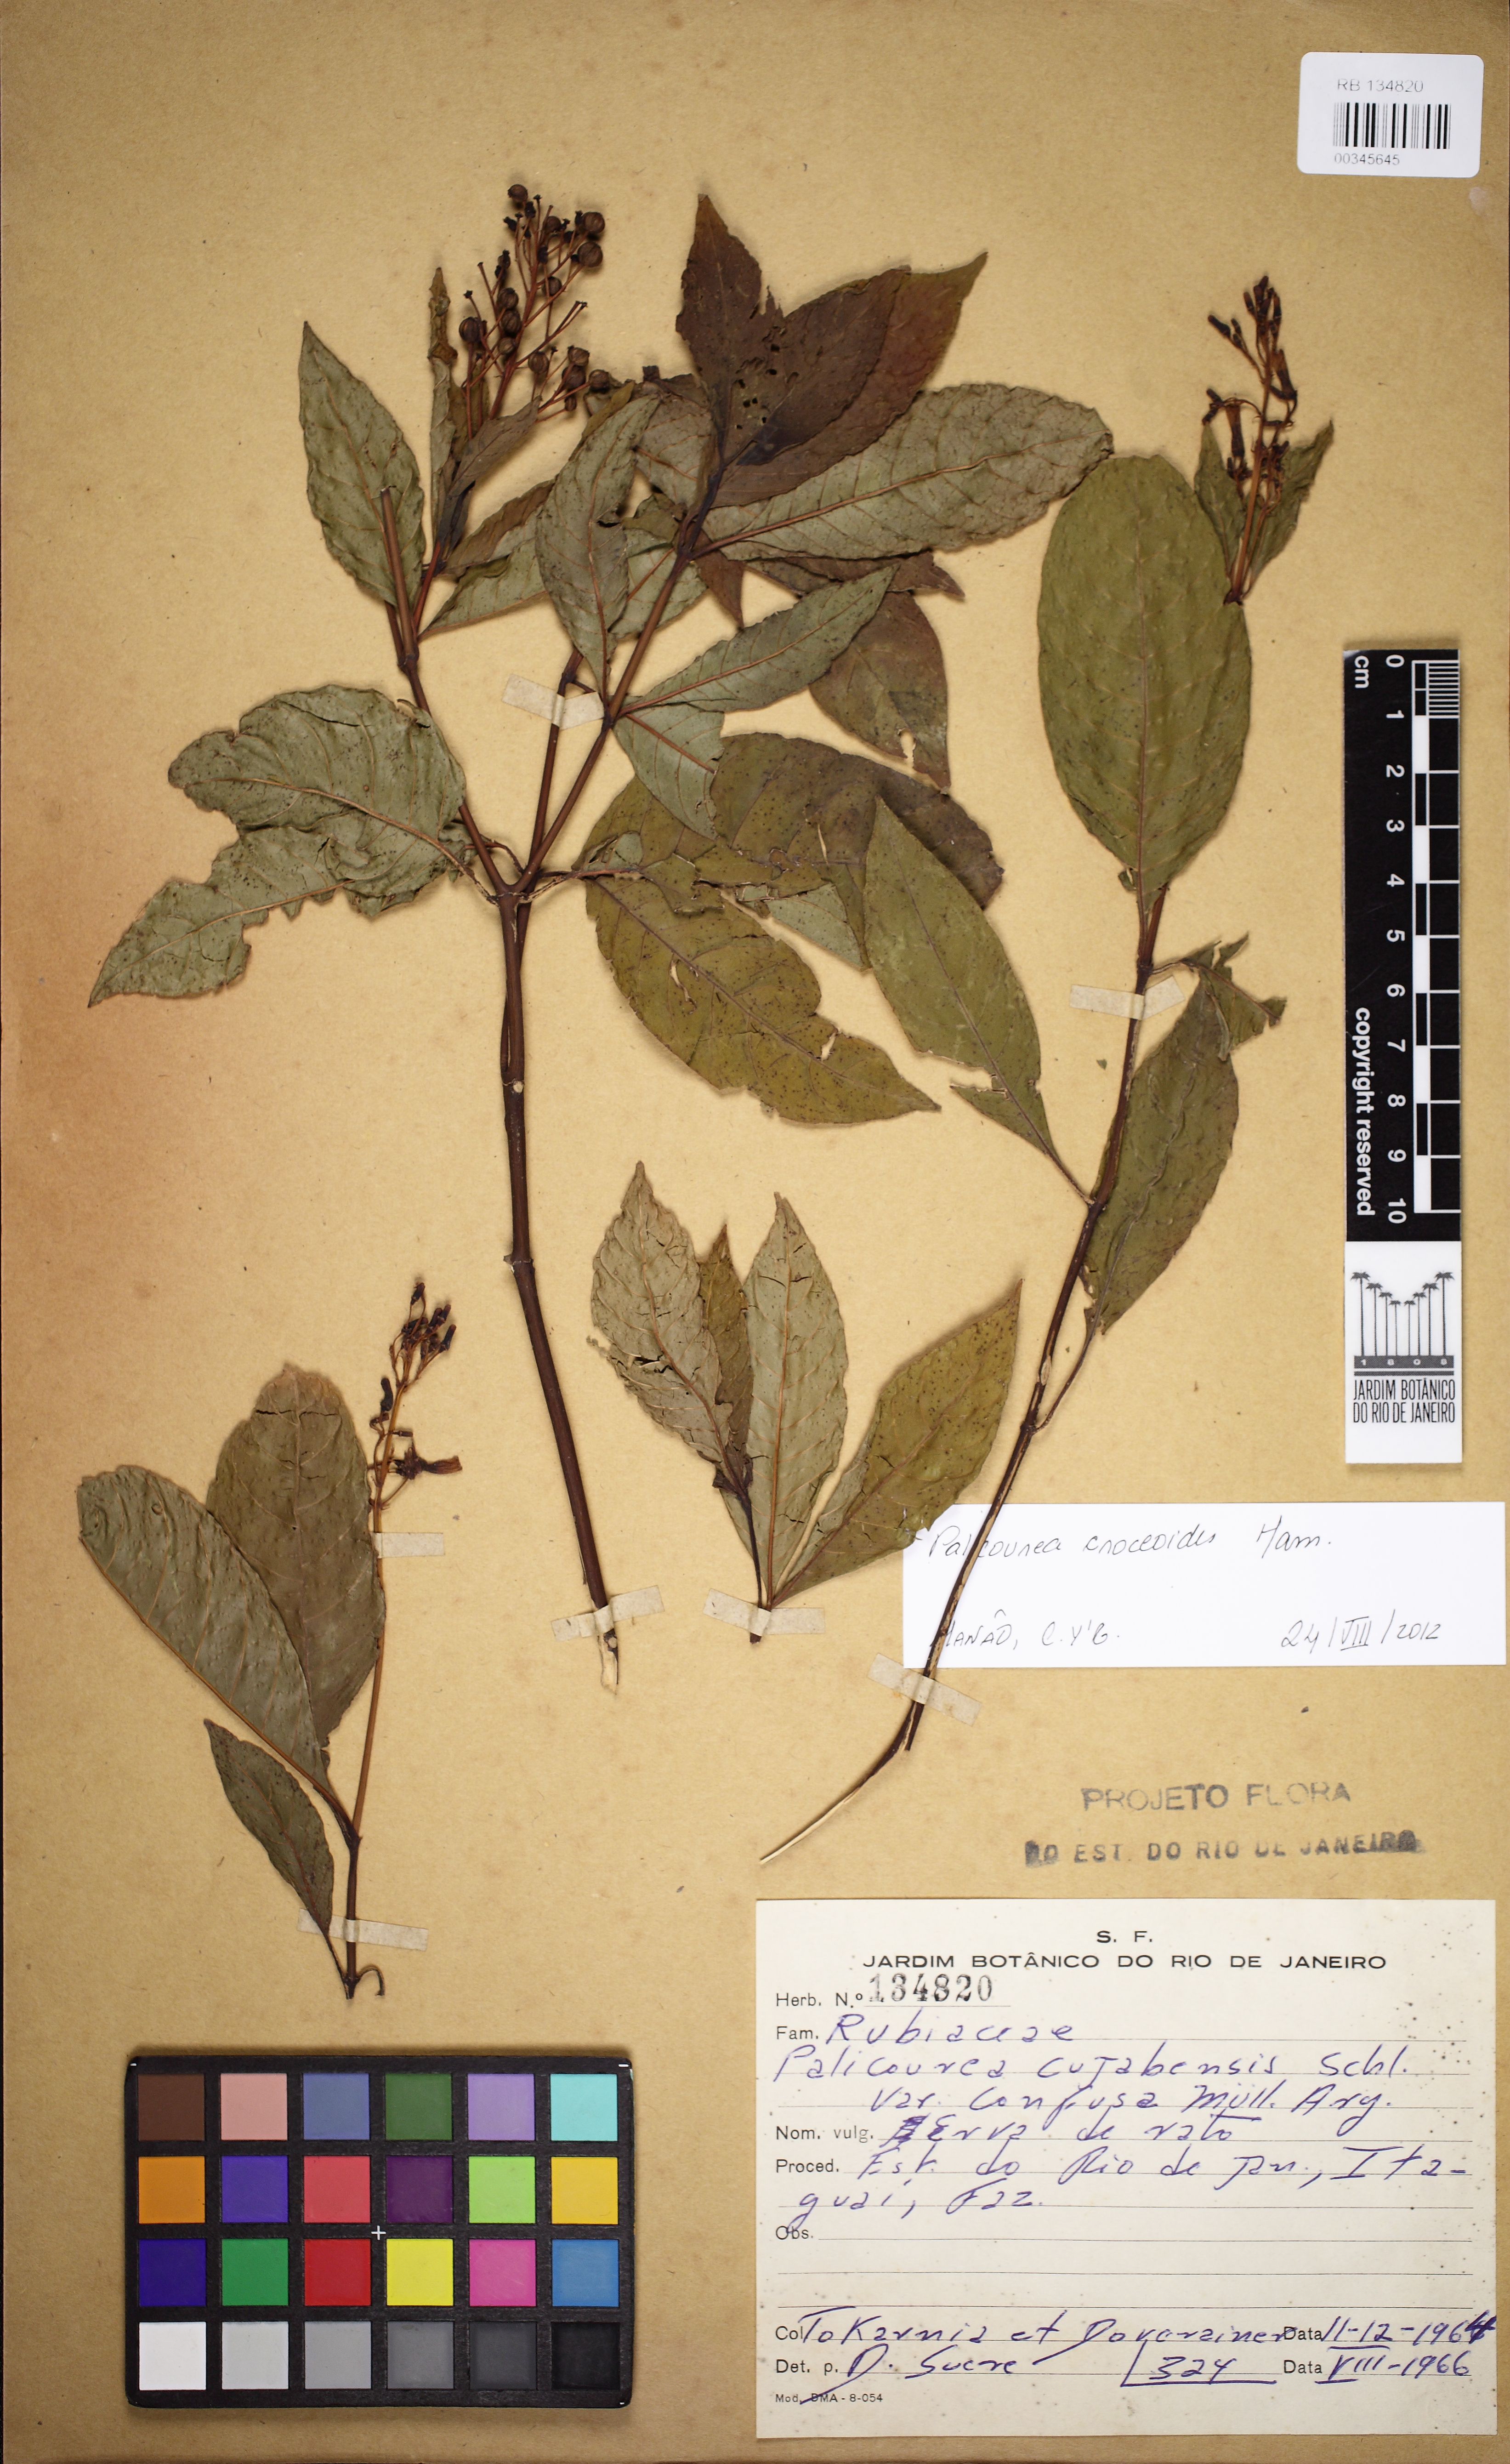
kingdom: Plantae
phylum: Tracheophyta
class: Magnoliopsida
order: Gentianales
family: Rubiaceae
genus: Palicourea
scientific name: Palicourea croceoides
